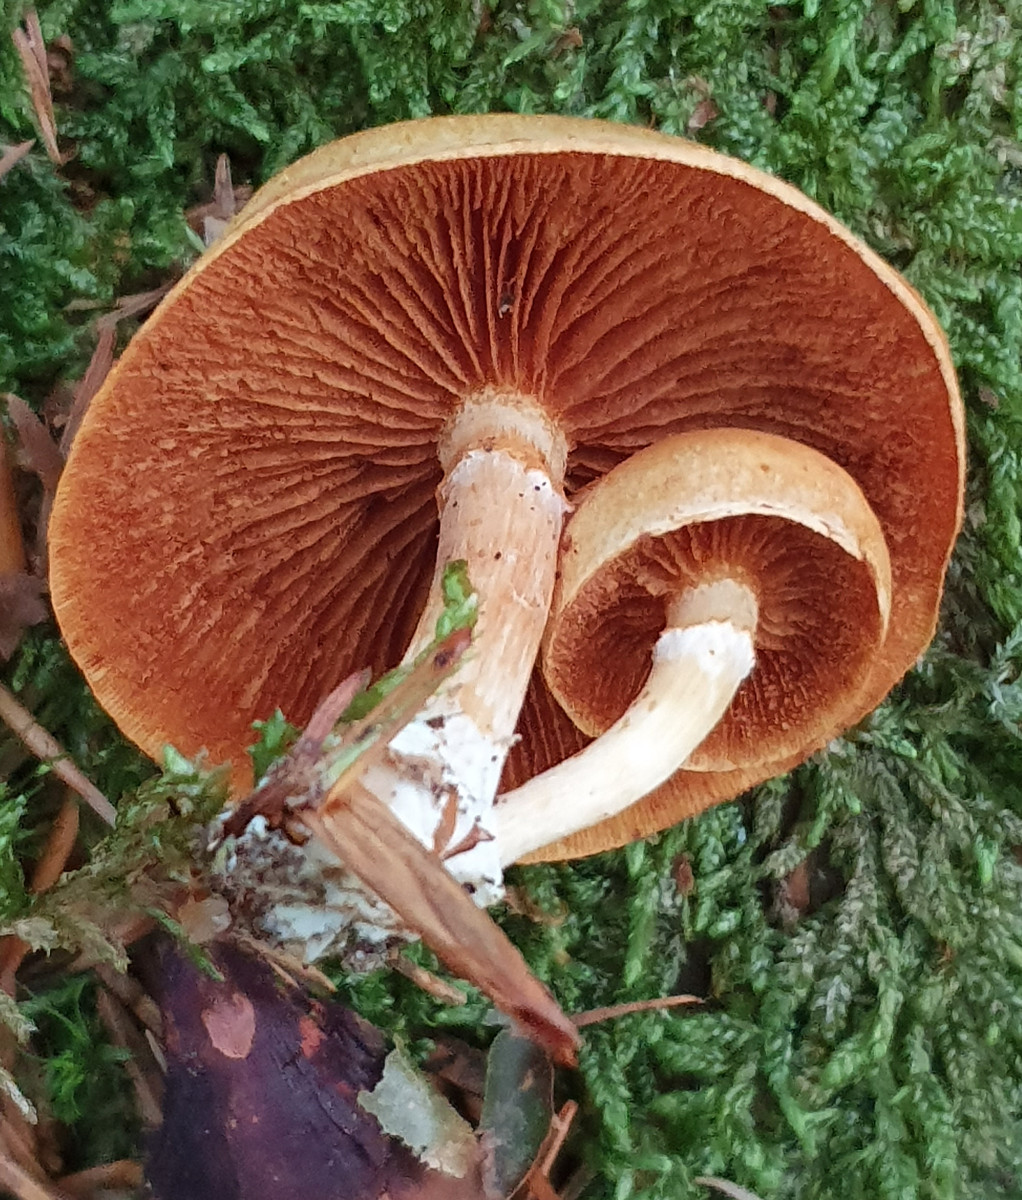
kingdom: Fungi
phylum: Basidiomycota
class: Agaricomycetes
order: Agaricales
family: Hymenogastraceae
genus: Gymnopilus
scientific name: Gymnopilus penetrans
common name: plettet flammehat
